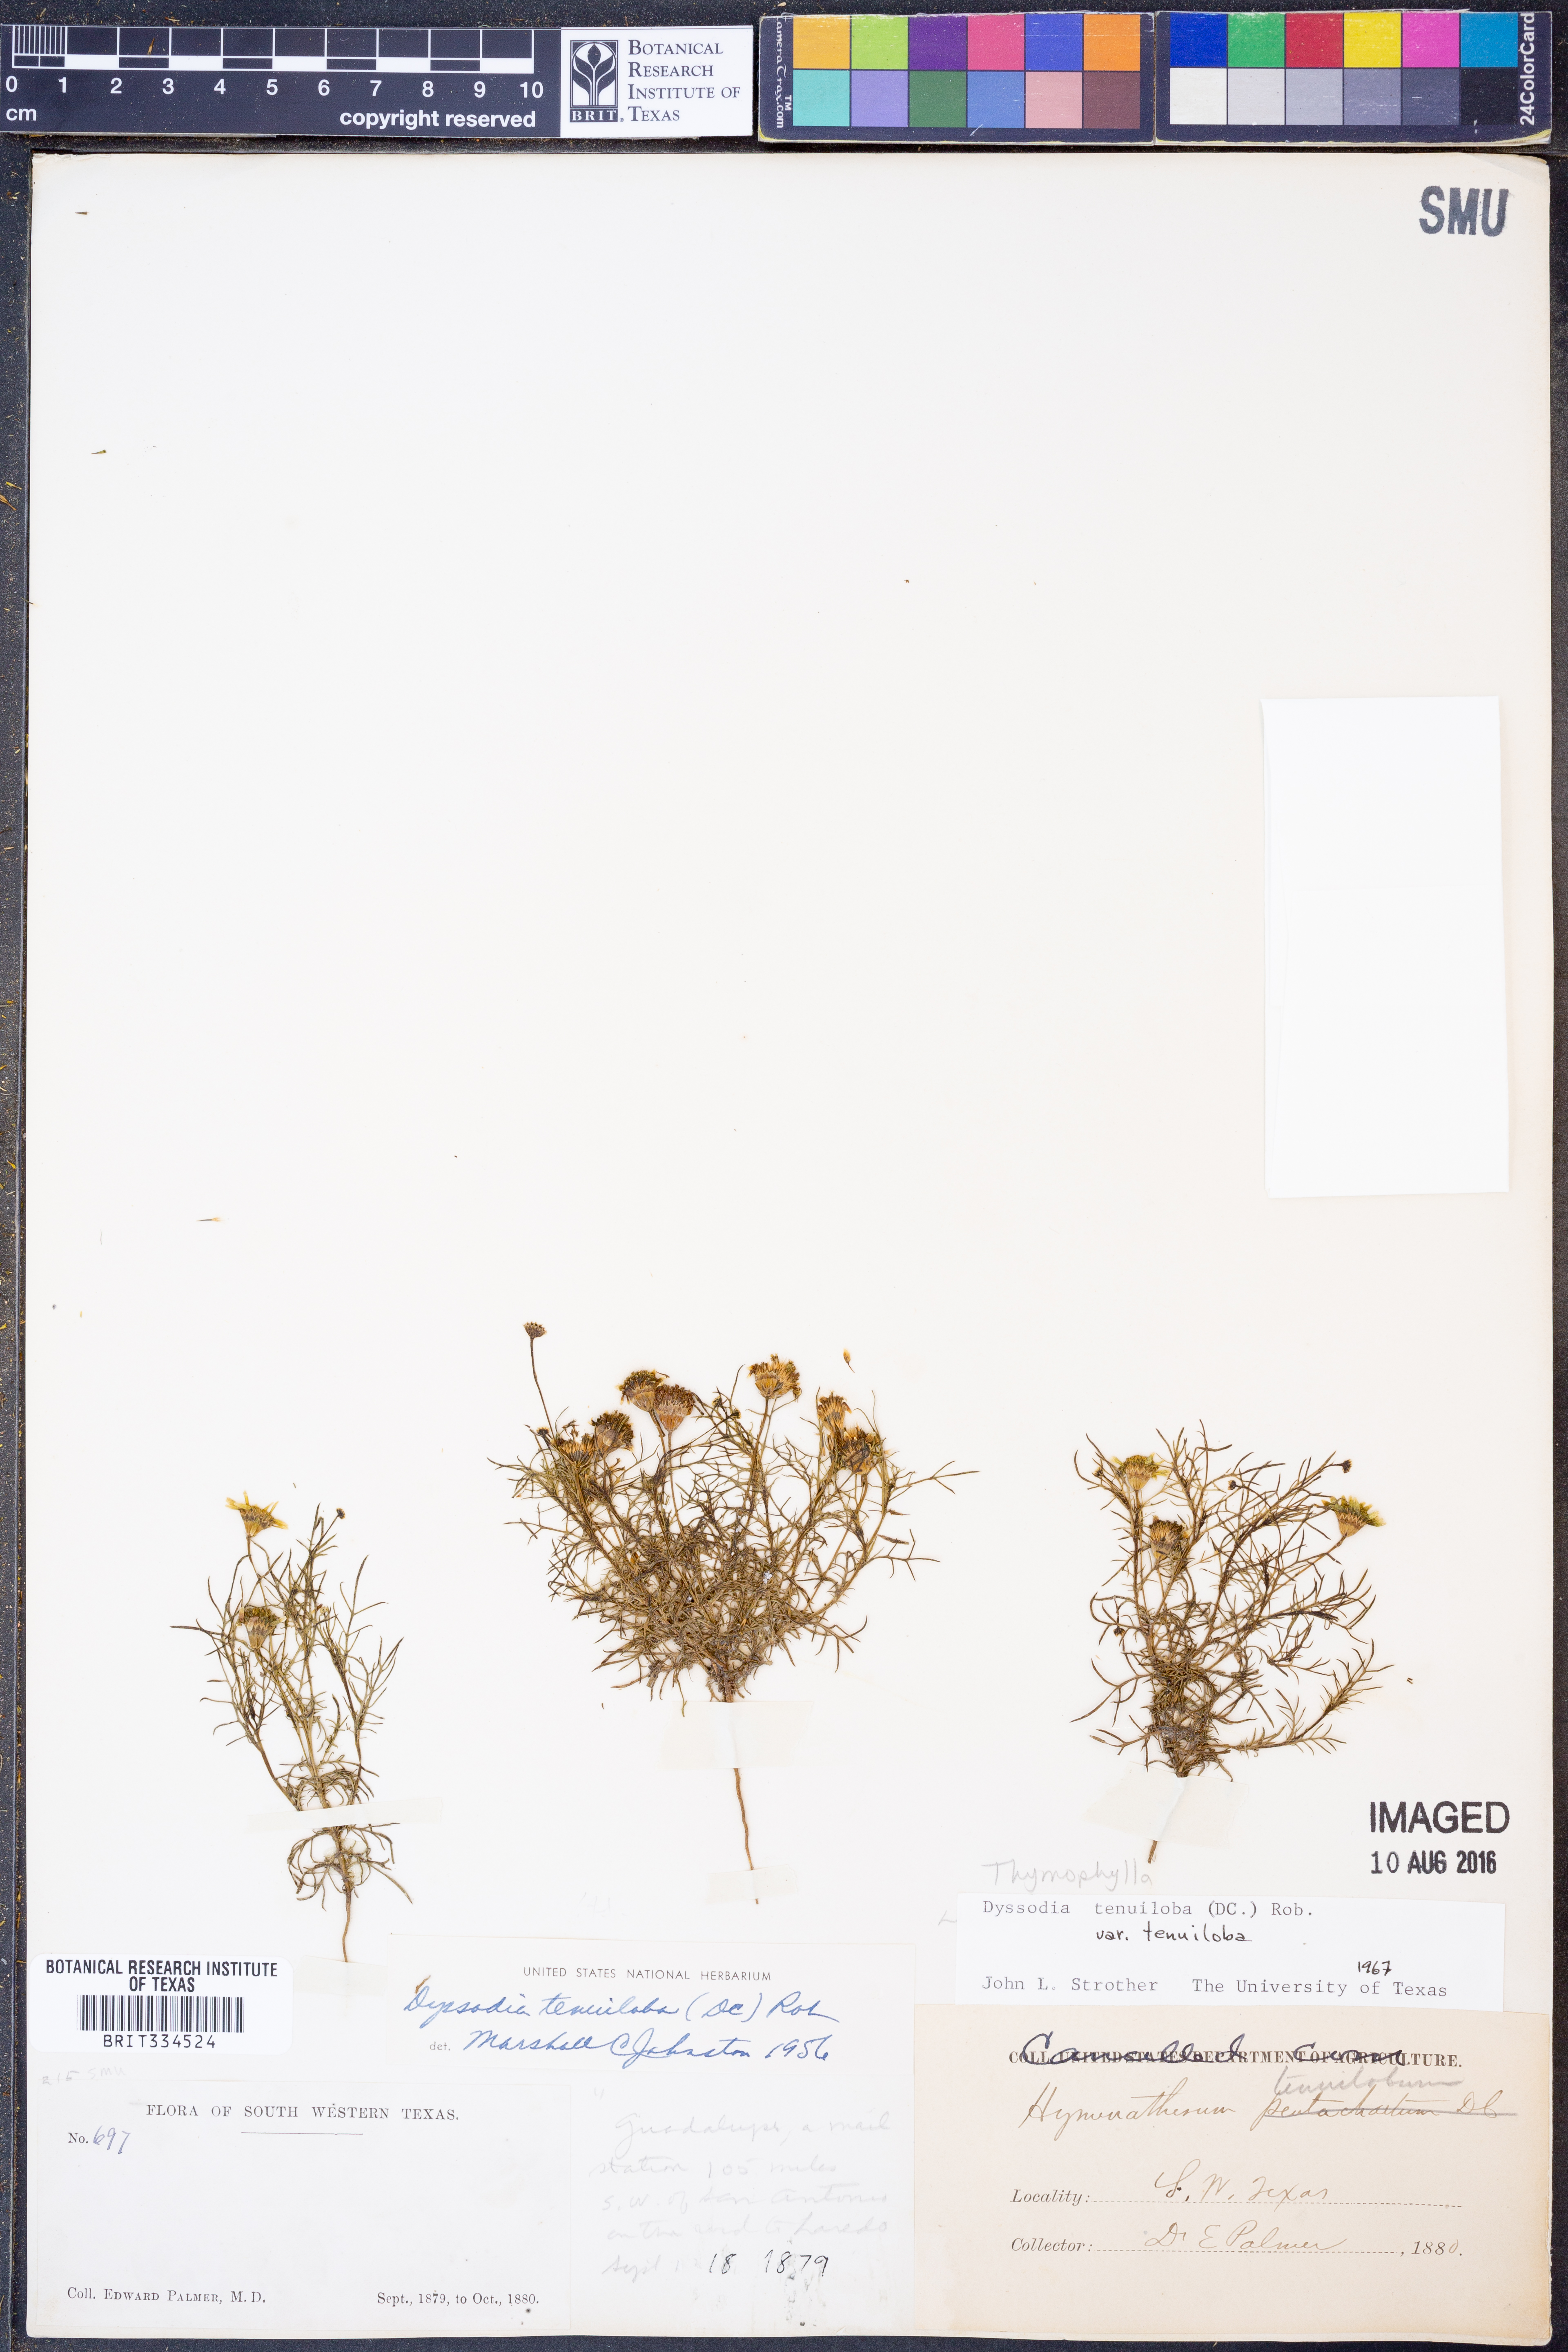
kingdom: Plantae
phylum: Tracheophyta
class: Magnoliopsida
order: Asterales
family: Asteraceae
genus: Thymophylla
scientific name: Thymophylla tenuiloba
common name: Dahlberg's daisy
